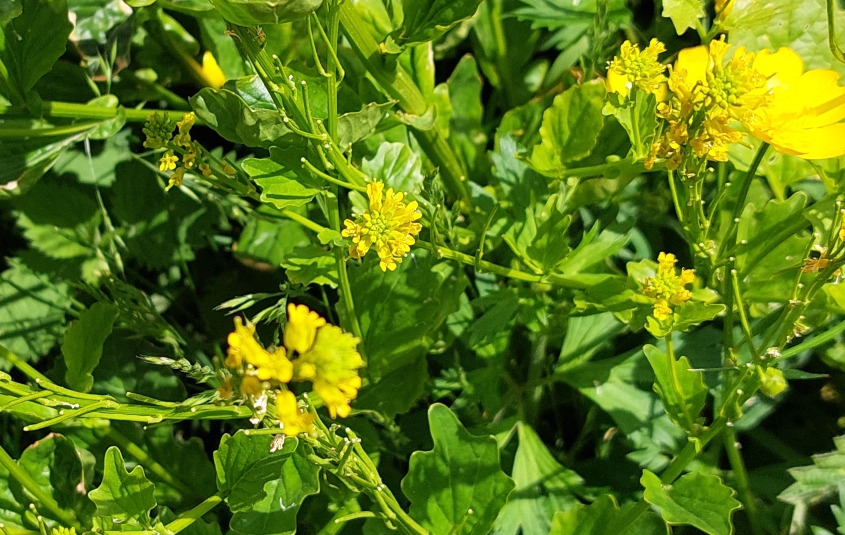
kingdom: Plantae
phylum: Tracheophyta
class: Magnoliopsida
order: Brassicales
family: Brassicaceae
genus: Barbarea
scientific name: Barbarea vulgaris
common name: Almindelig vinterkarse
